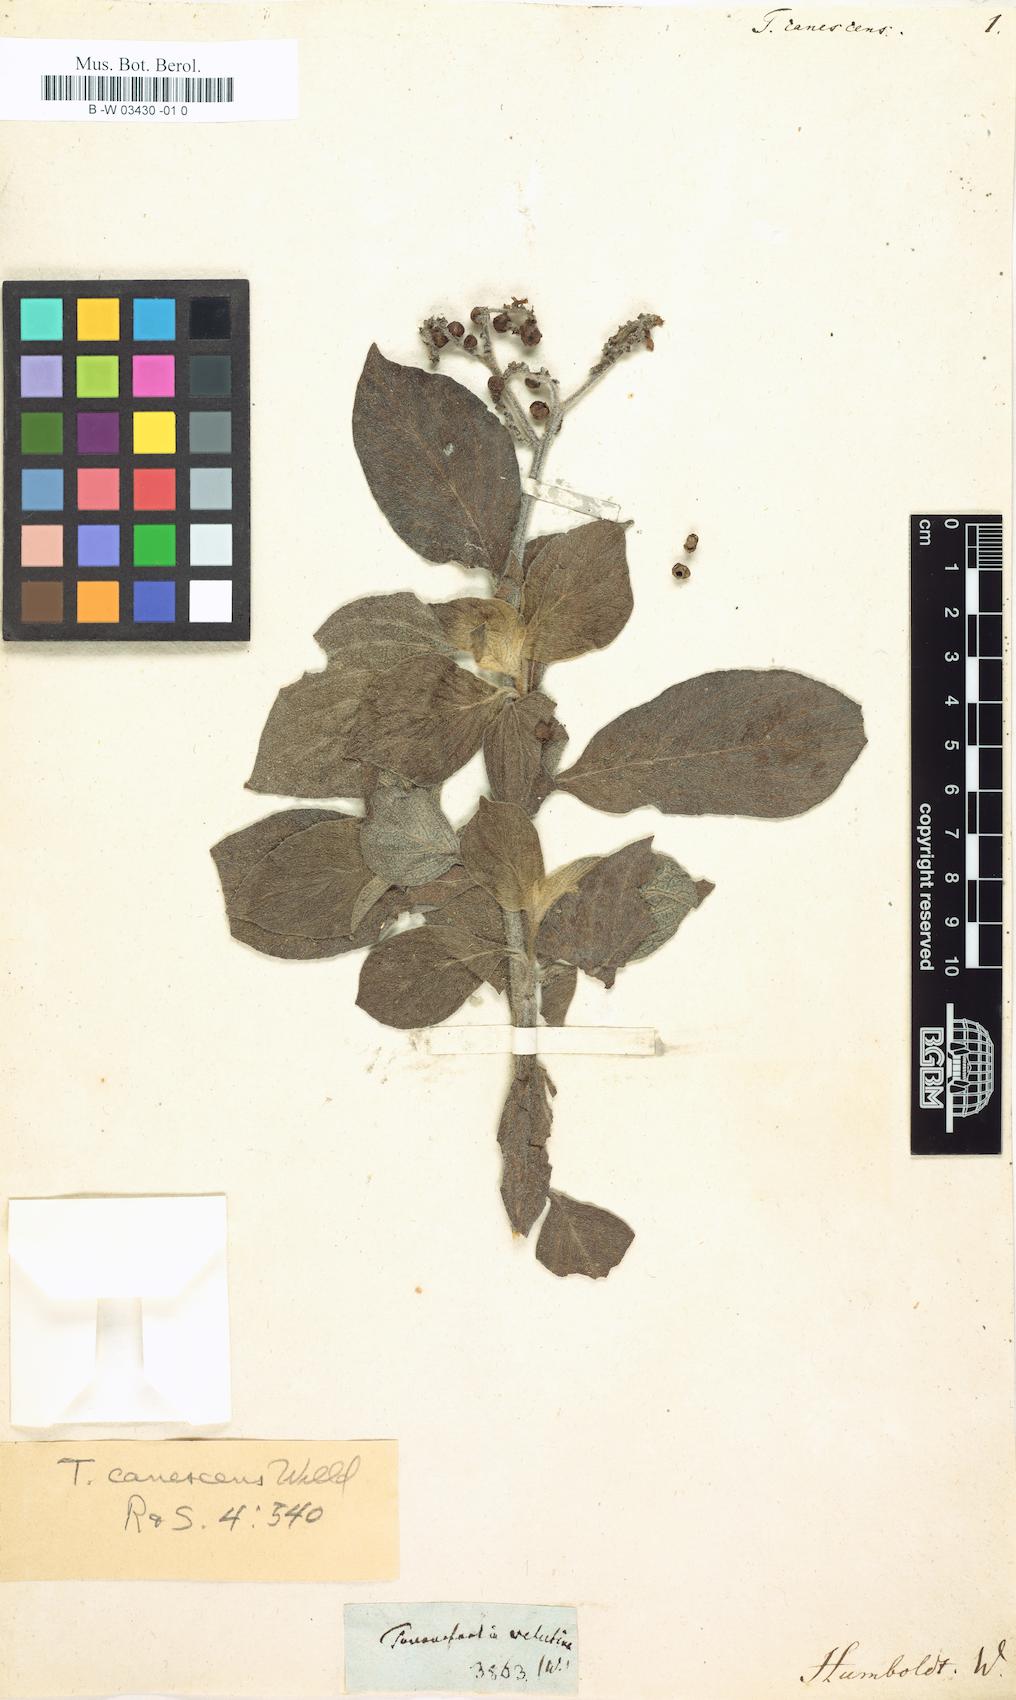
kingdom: Plantae
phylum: Tracheophyta
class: Magnoliopsida
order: Boraginales
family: Heliotropiaceae
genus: Tournefortia
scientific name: Tournefortia canescens
